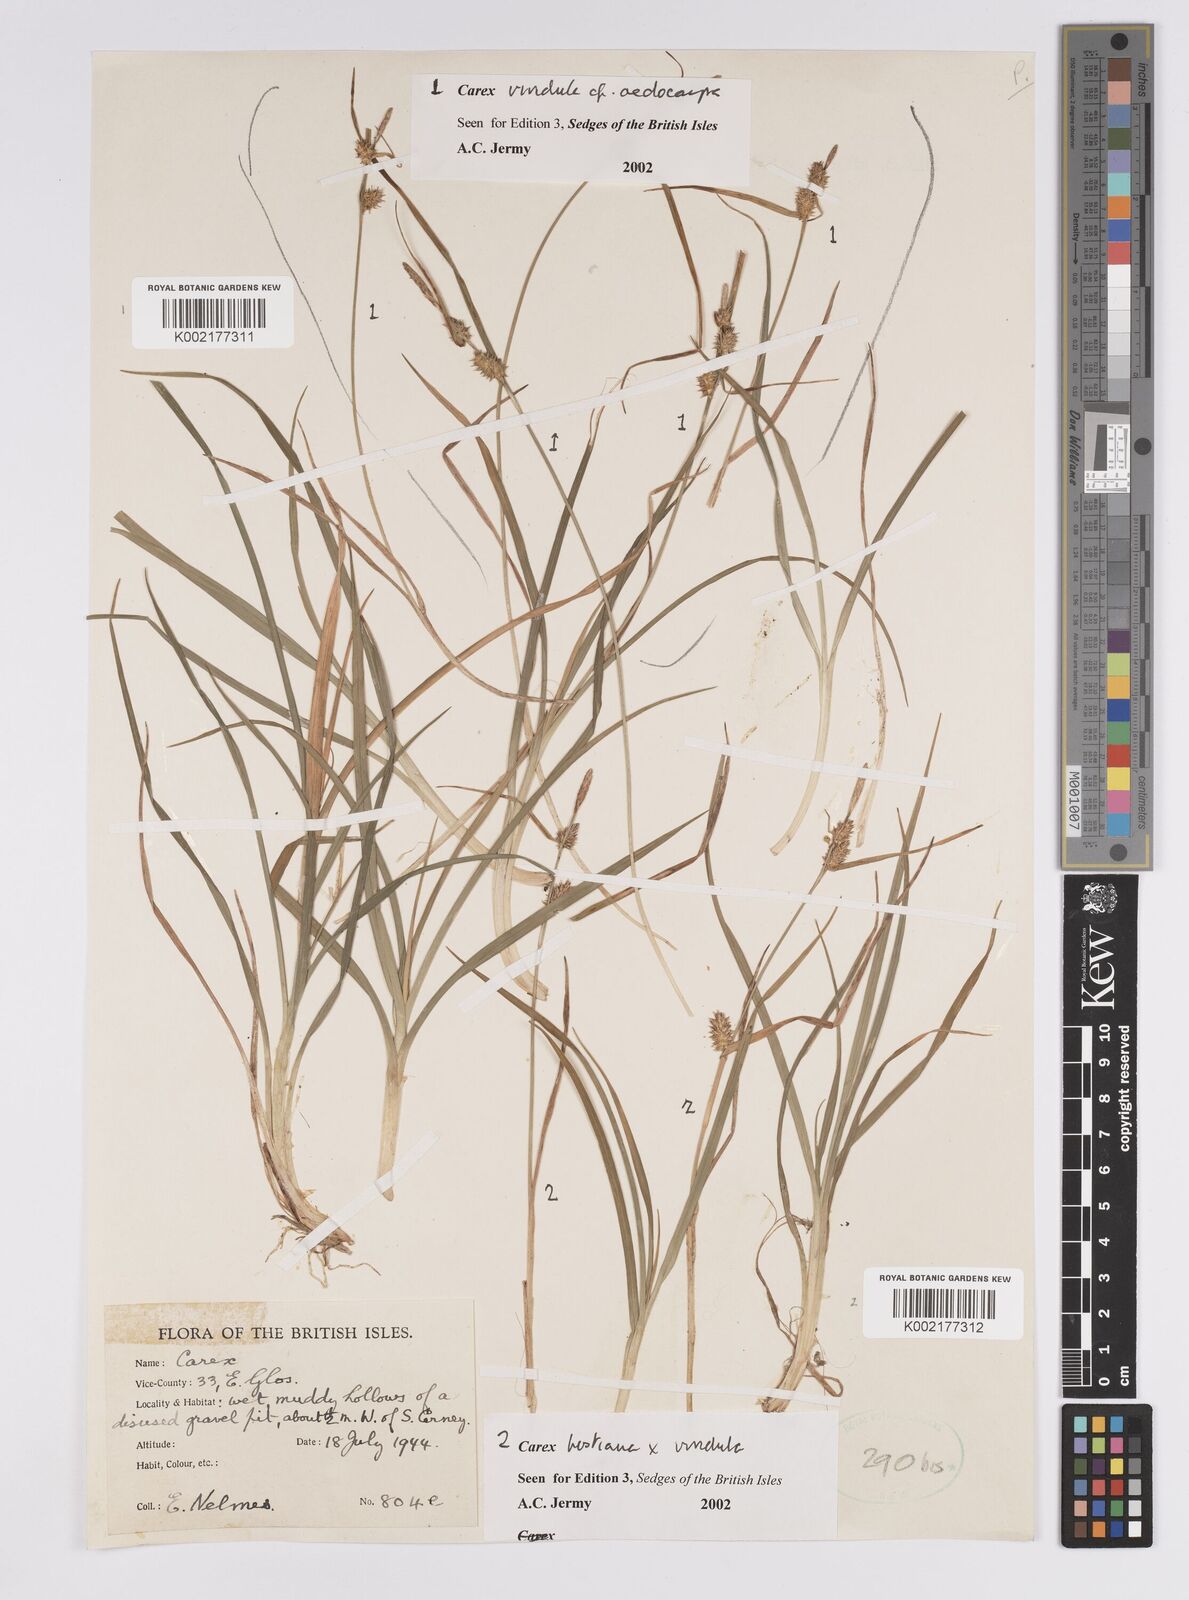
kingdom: Plantae
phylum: Tracheophyta
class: Liliopsida
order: Poales
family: Cyperaceae
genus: Carex
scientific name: Carex hostiana
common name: Tawny sedge
